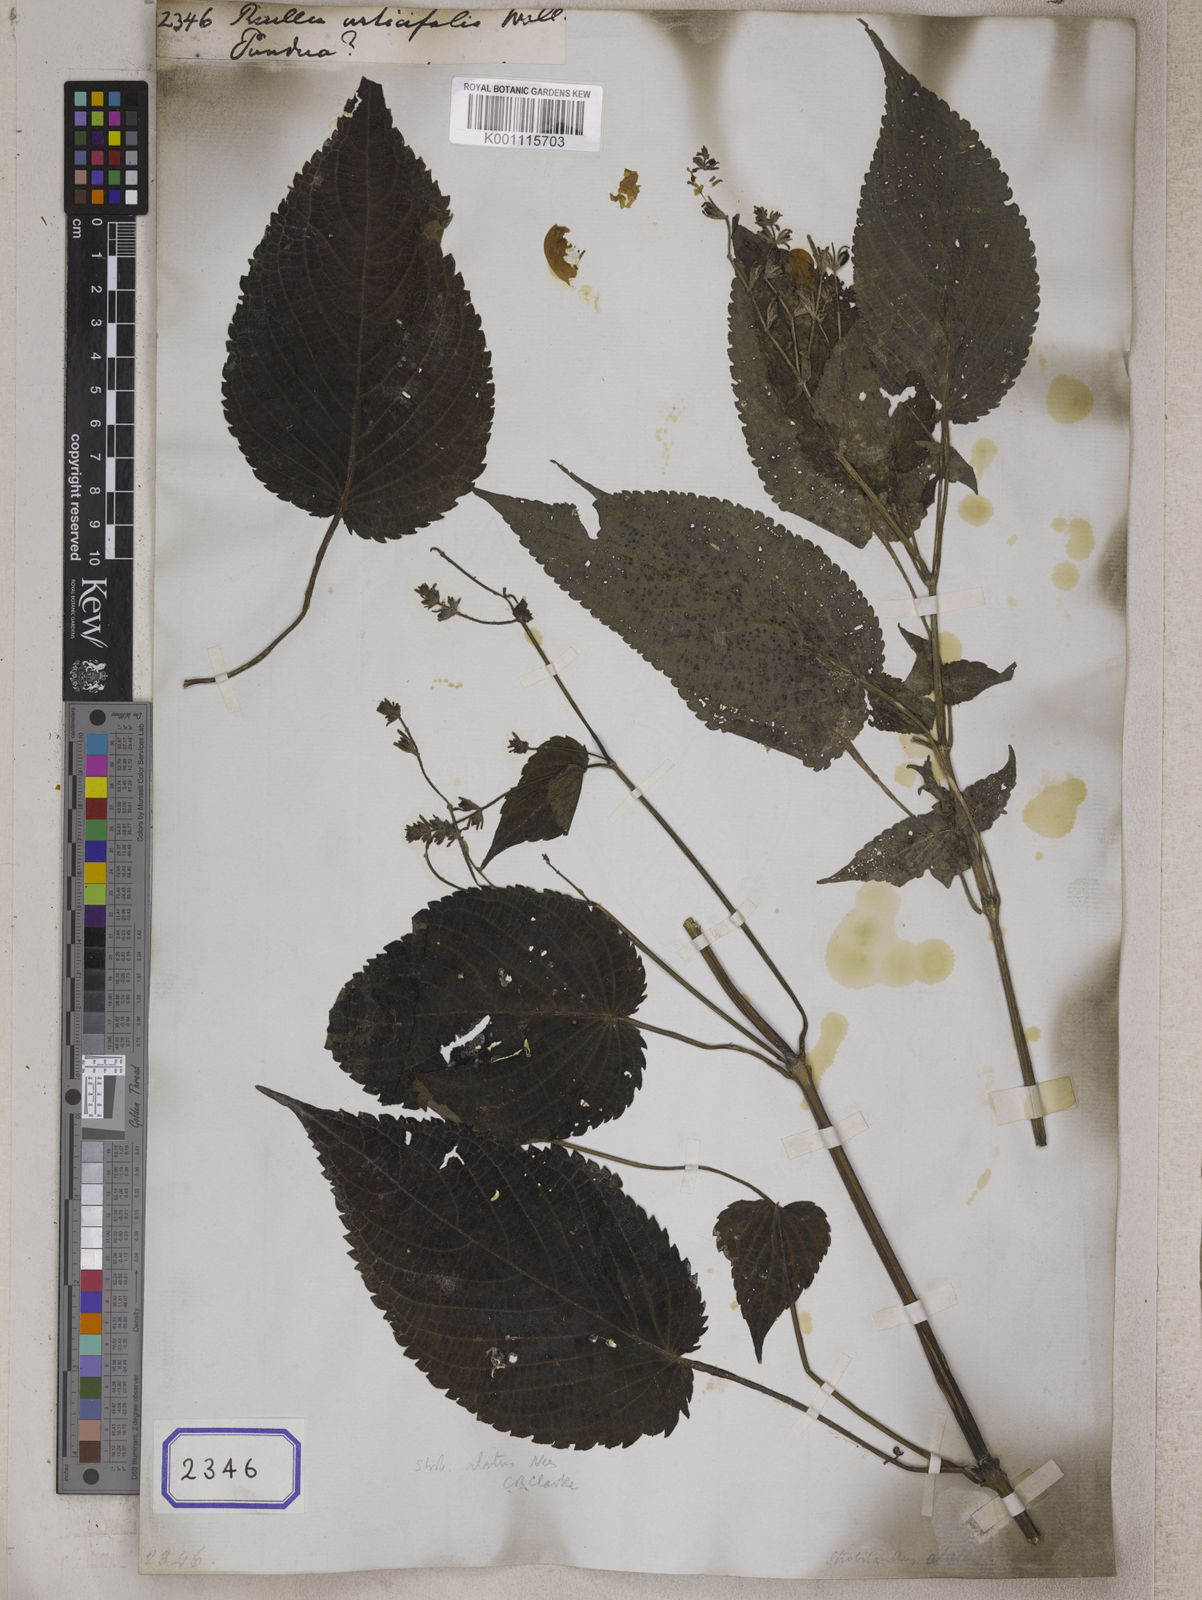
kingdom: Plantae
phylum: Tracheophyta
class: Magnoliopsida
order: Lamiales
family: Acanthaceae
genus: Strobilanthes
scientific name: Strobilanthes attenuata
